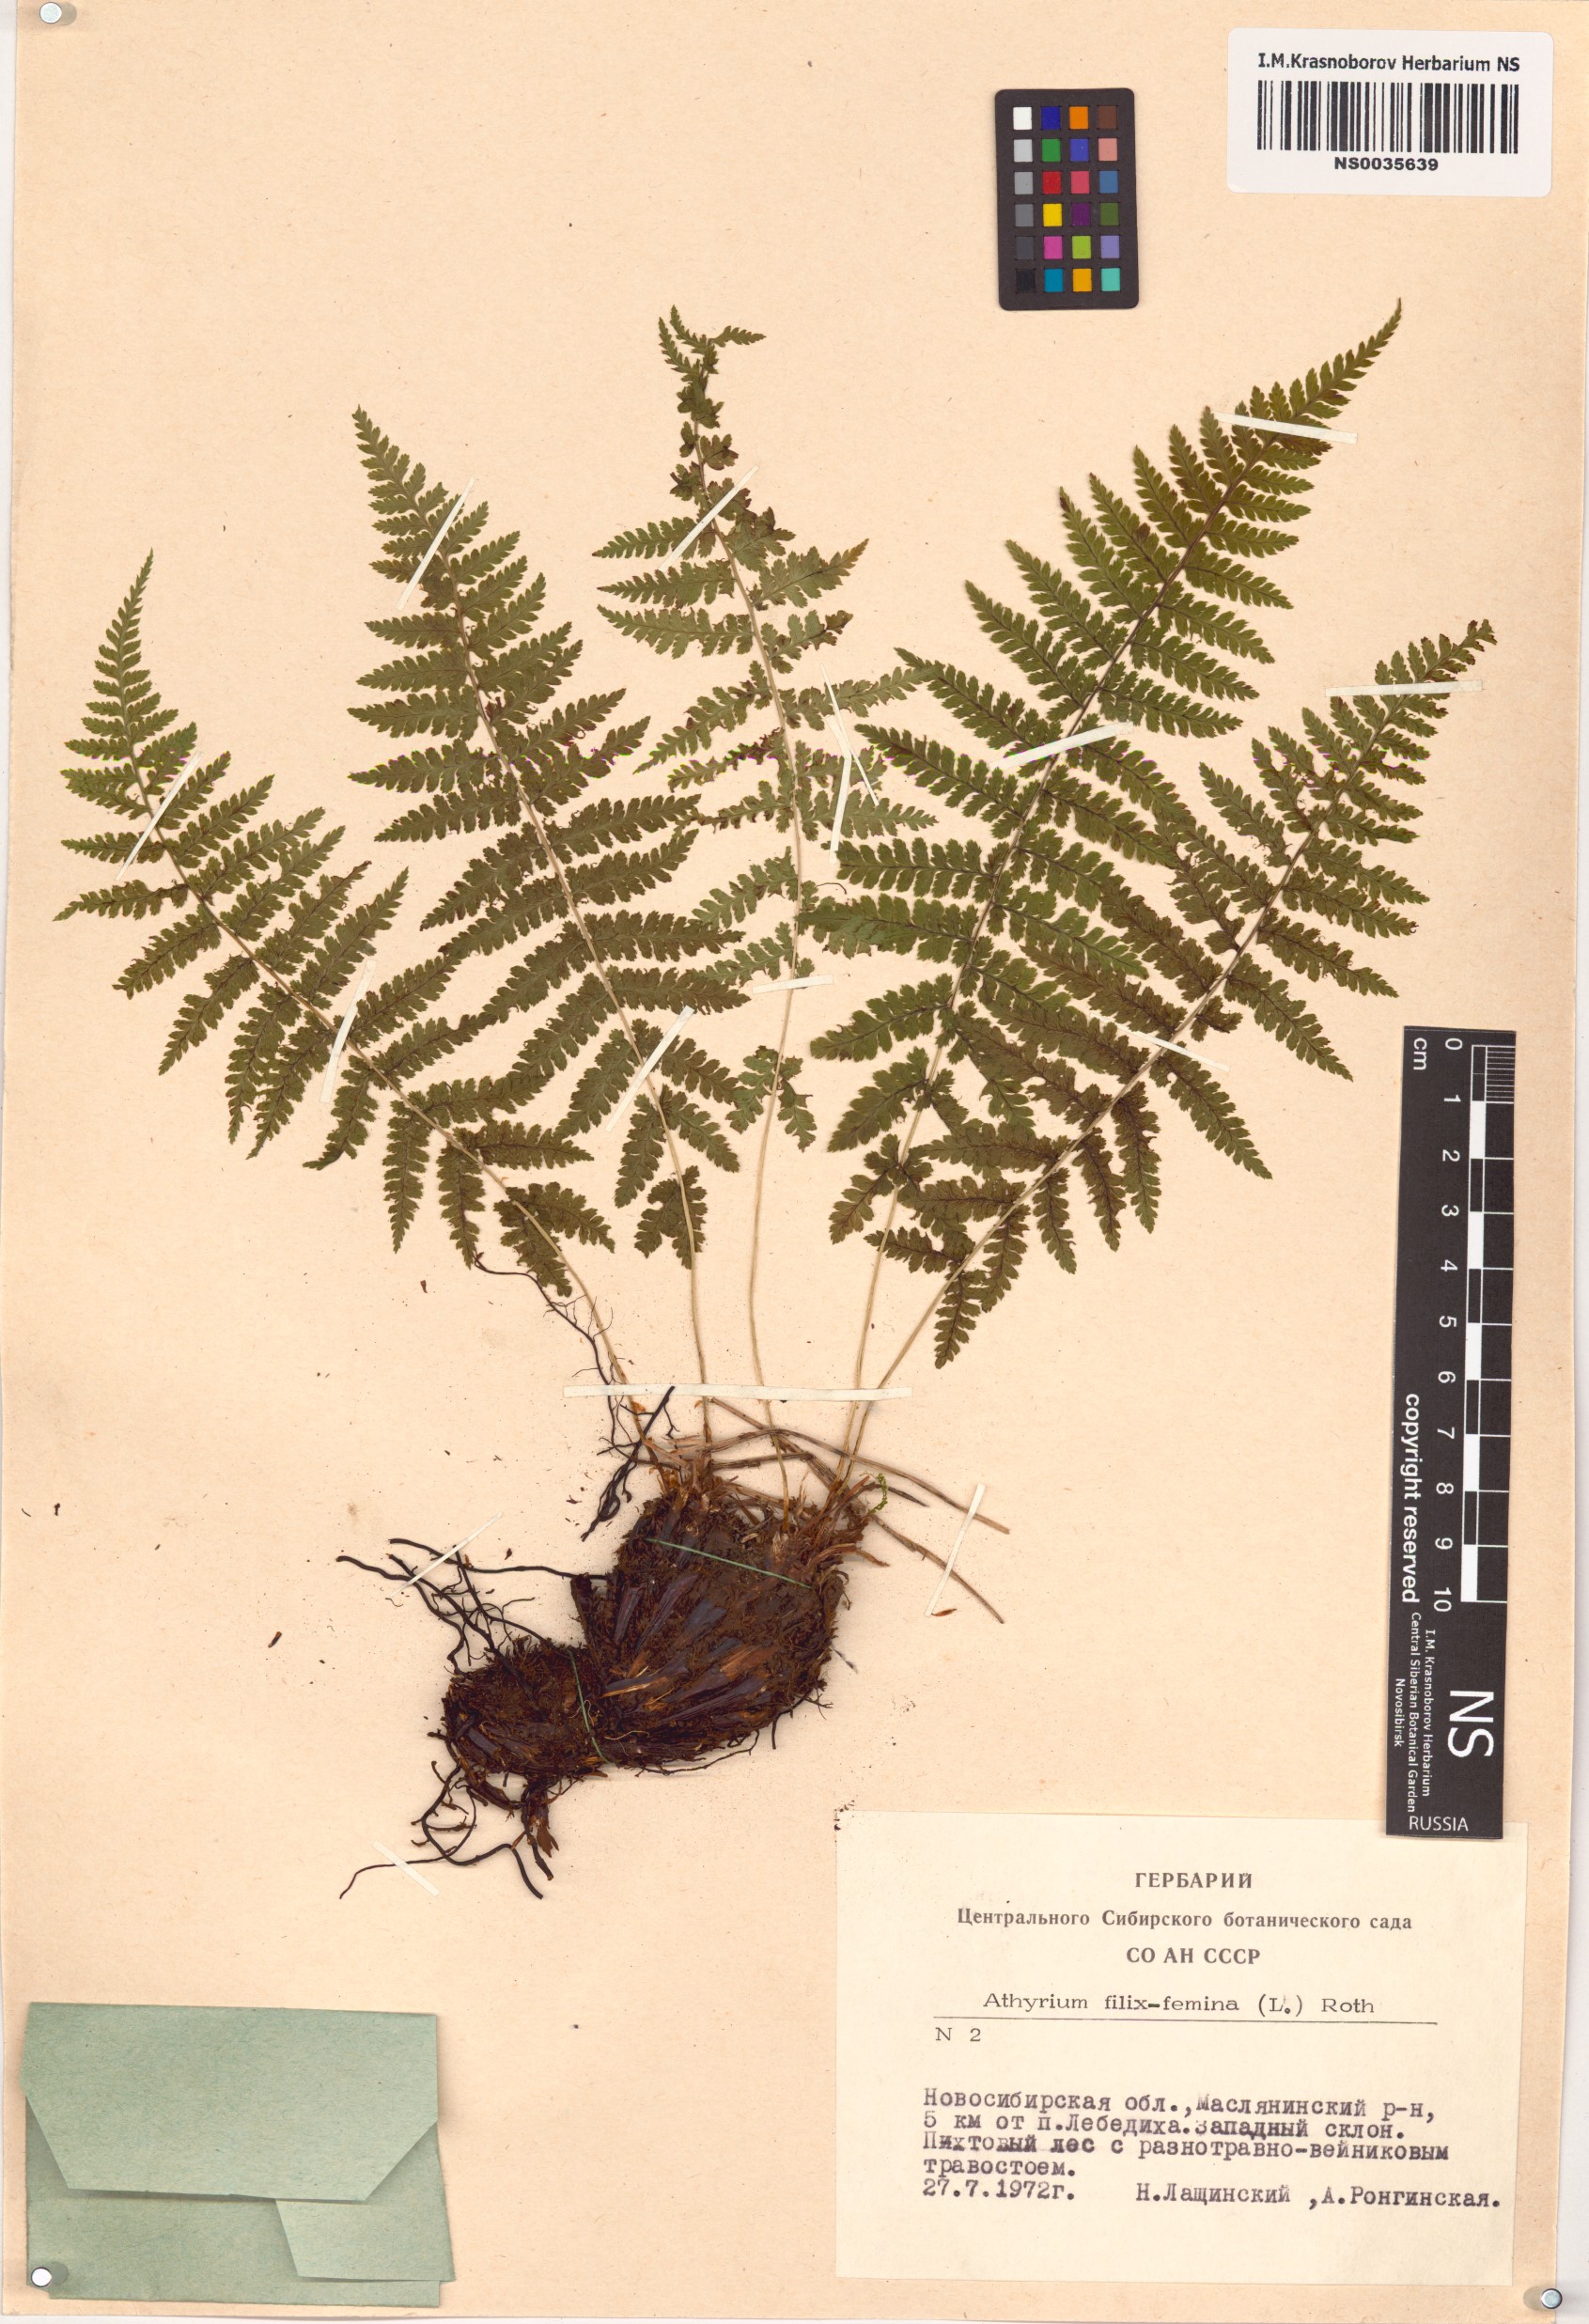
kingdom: Plantae
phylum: Tracheophyta
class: Polypodiopsida
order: Polypodiales
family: Athyriaceae
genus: Athyrium
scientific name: Athyrium filix-femina
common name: Lady fern
